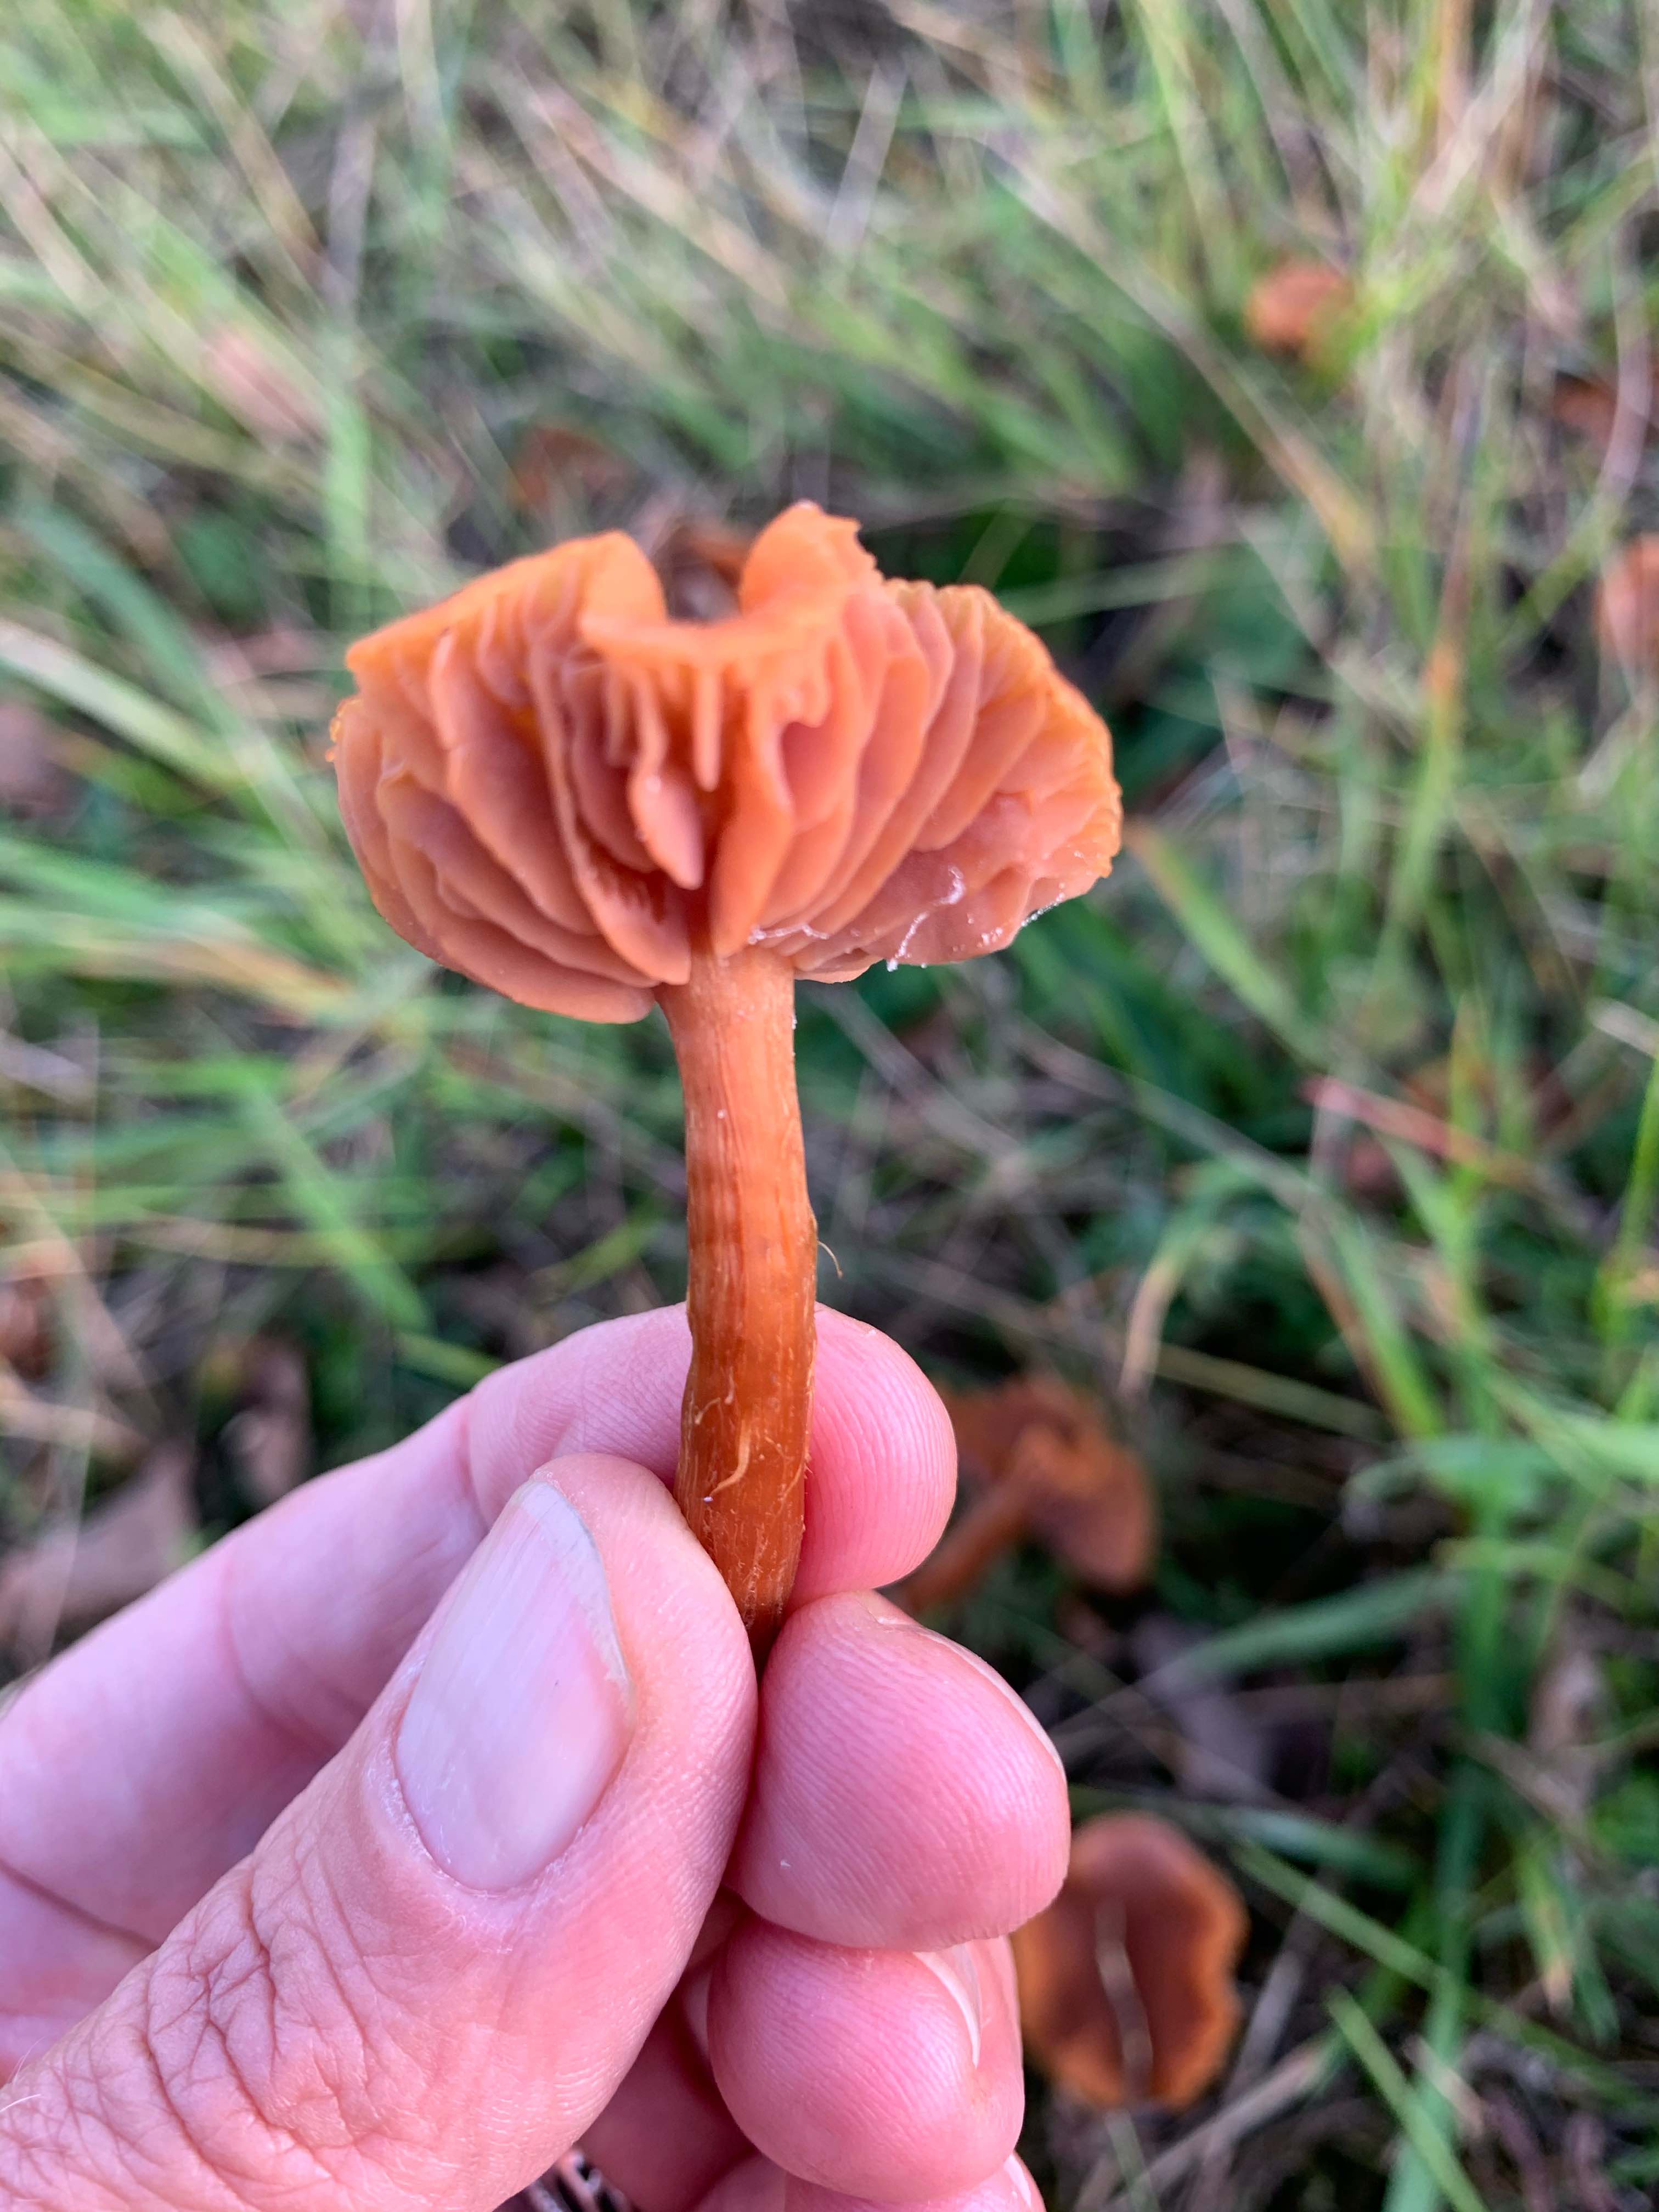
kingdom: Fungi
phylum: Basidiomycota
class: Agaricomycetes
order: Agaricales
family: Hydnangiaceae
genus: Laccaria
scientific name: Laccaria laccata
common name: rød ametysthat
